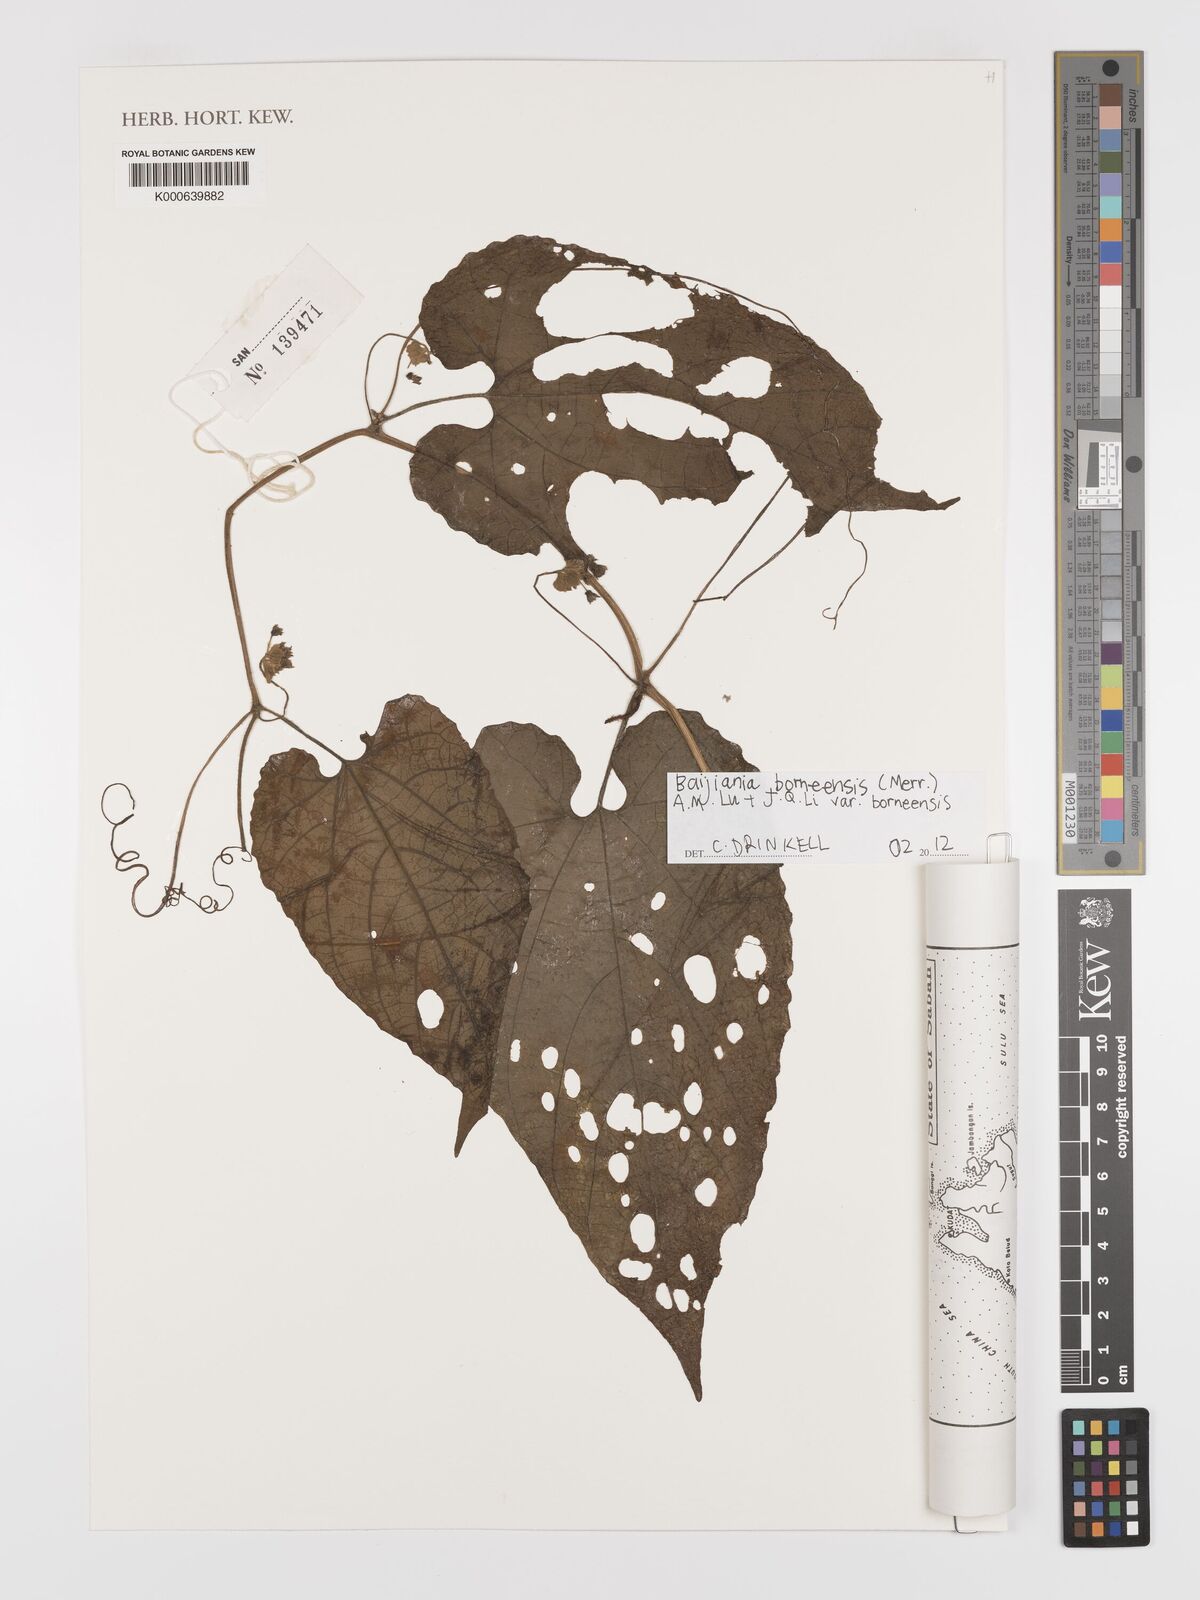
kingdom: Plantae
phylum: Tracheophyta
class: Magnoliopsida
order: Cucurbitales
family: Cucurbitaceae
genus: Baijiania
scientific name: Baijiania borneensis
